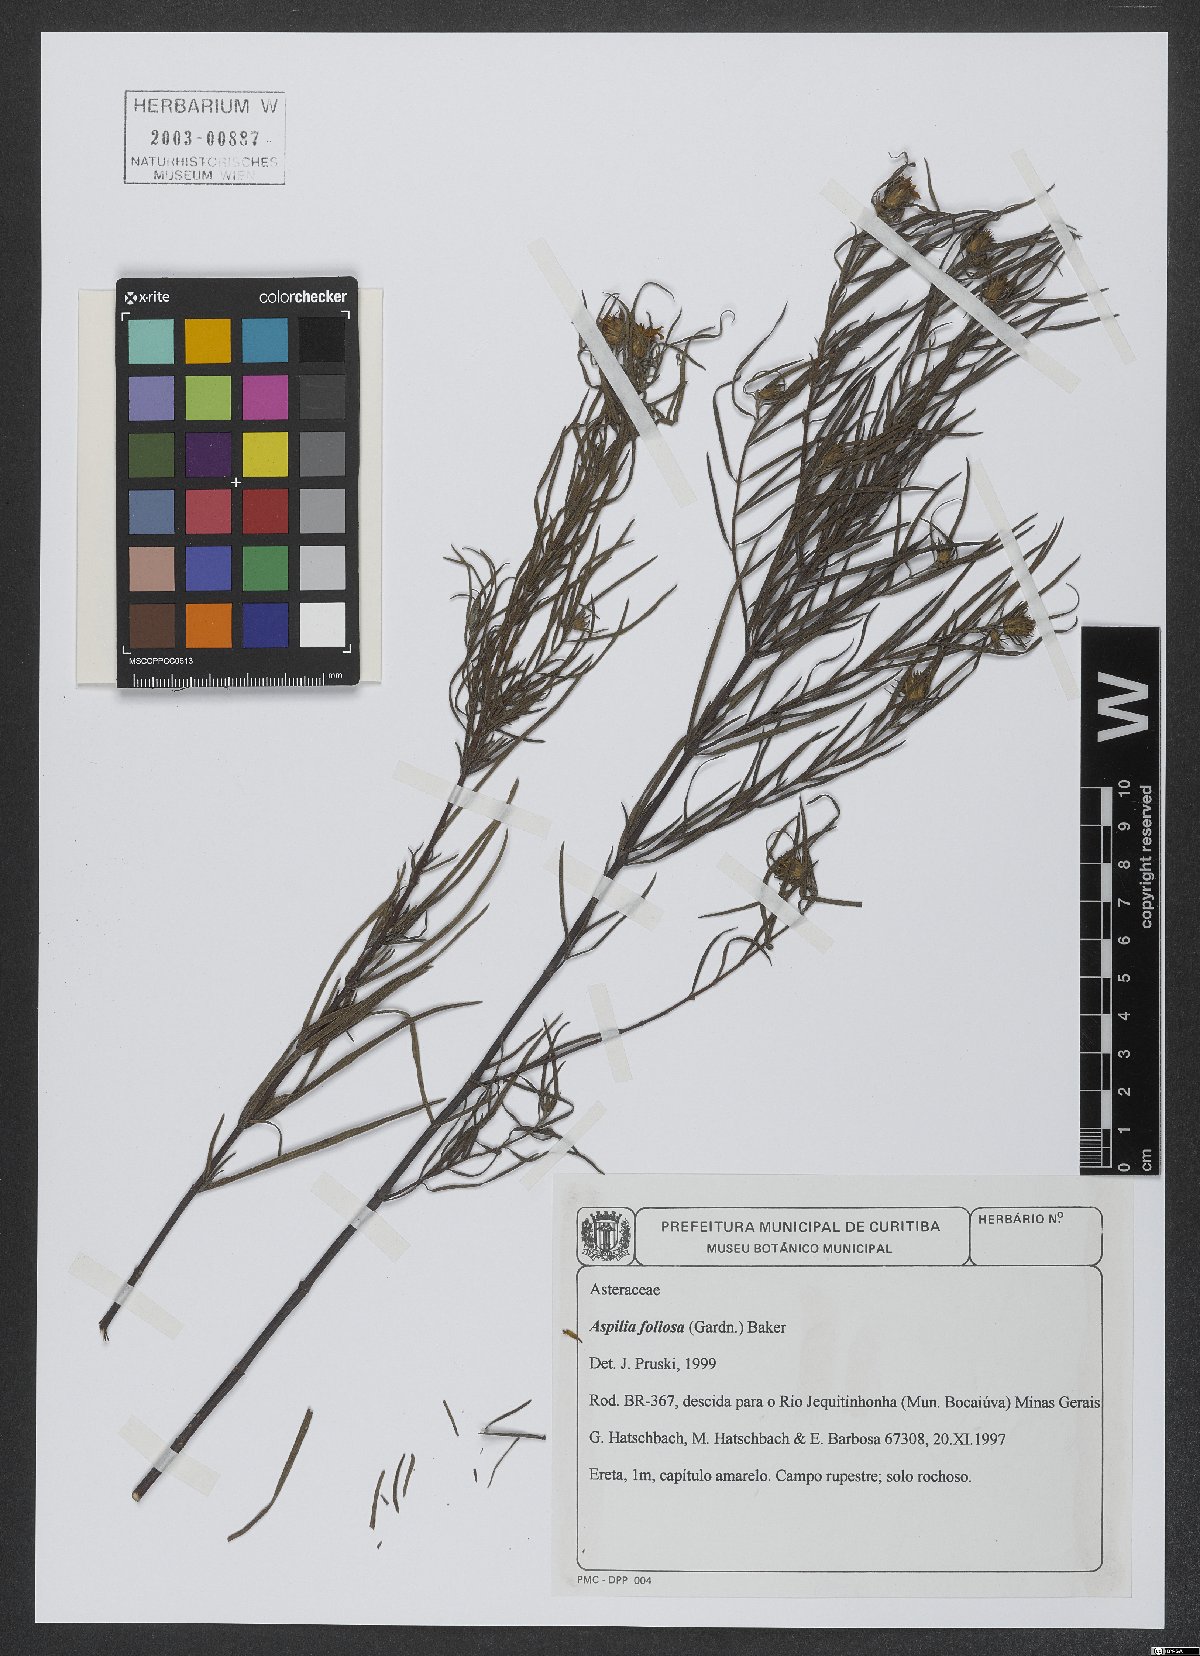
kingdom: Plantae
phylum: Tracheophyta
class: Magnoliopsida
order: Asterales
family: Asteraceae
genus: Aspilia
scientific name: Aspilia foliosa
